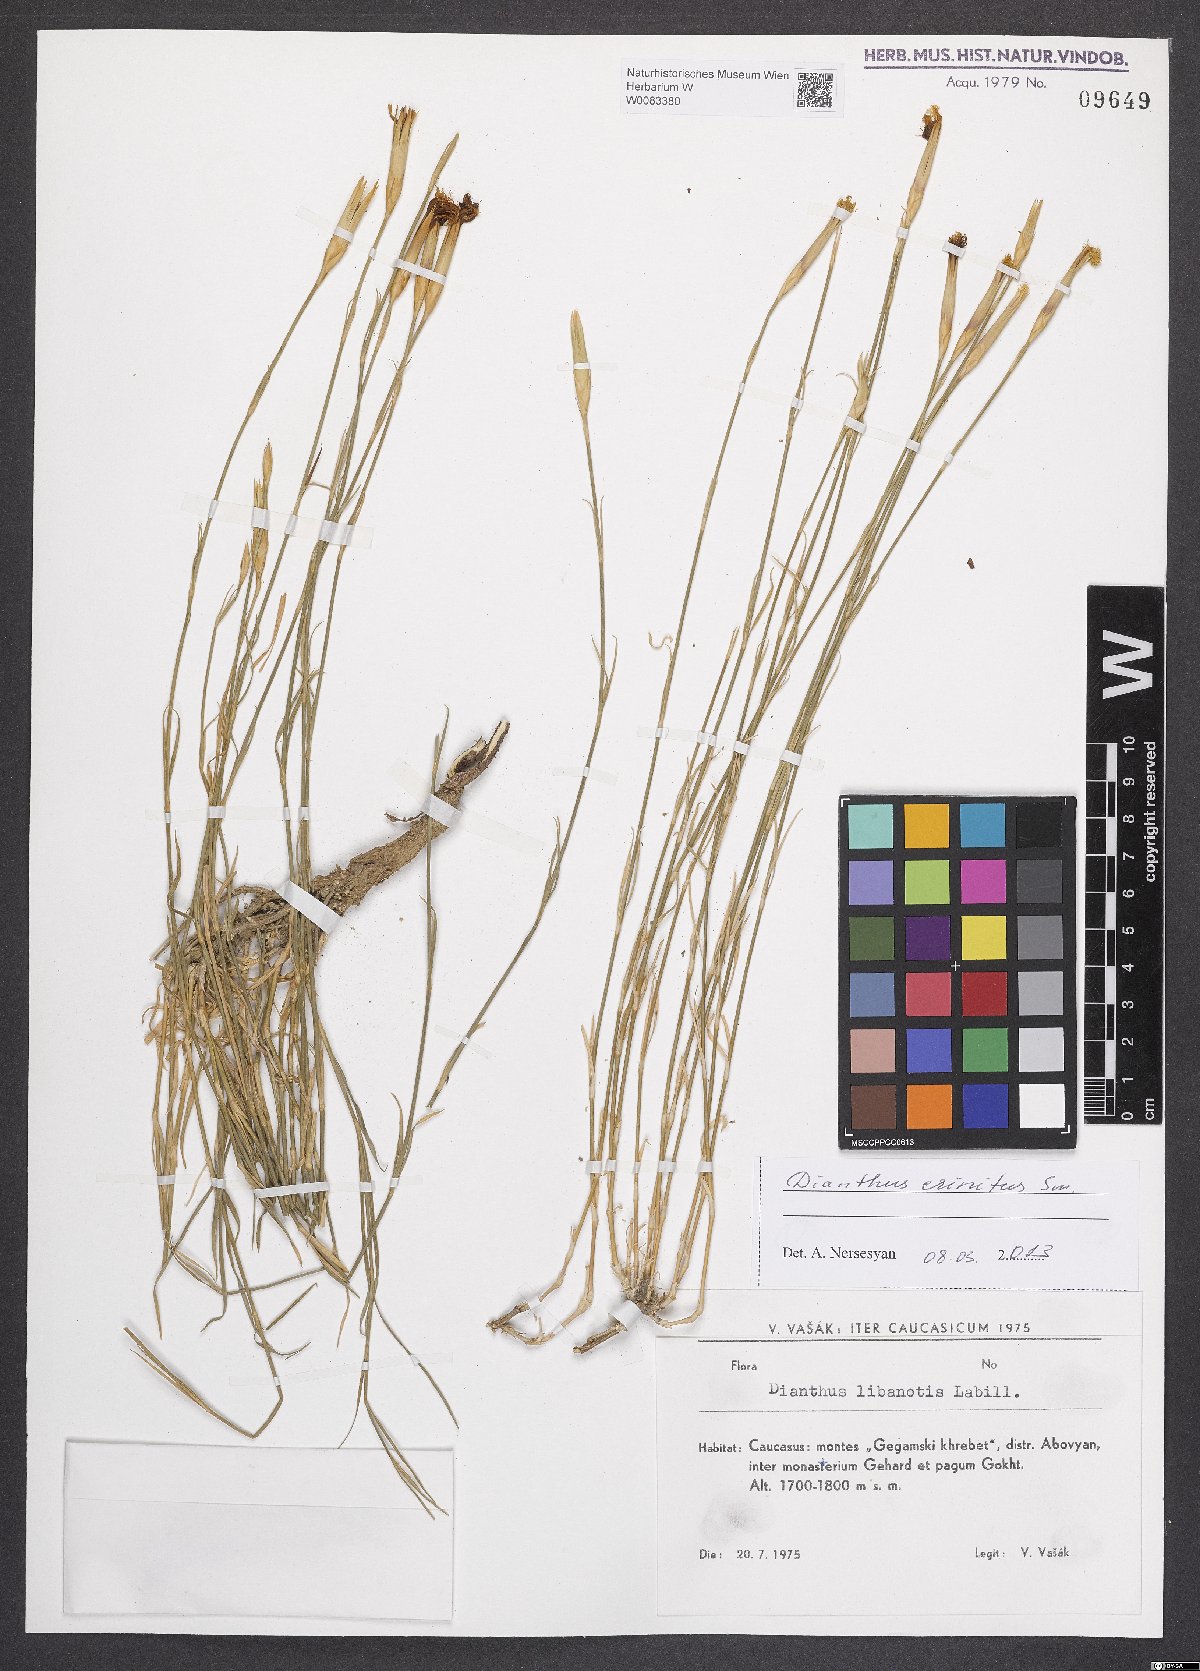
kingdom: Plantae
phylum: Tracheophyta
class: Magnoliopsida
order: Caryophyllales
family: Caryophyllaceae
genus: Dianthus
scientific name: Dianthus crinitus
